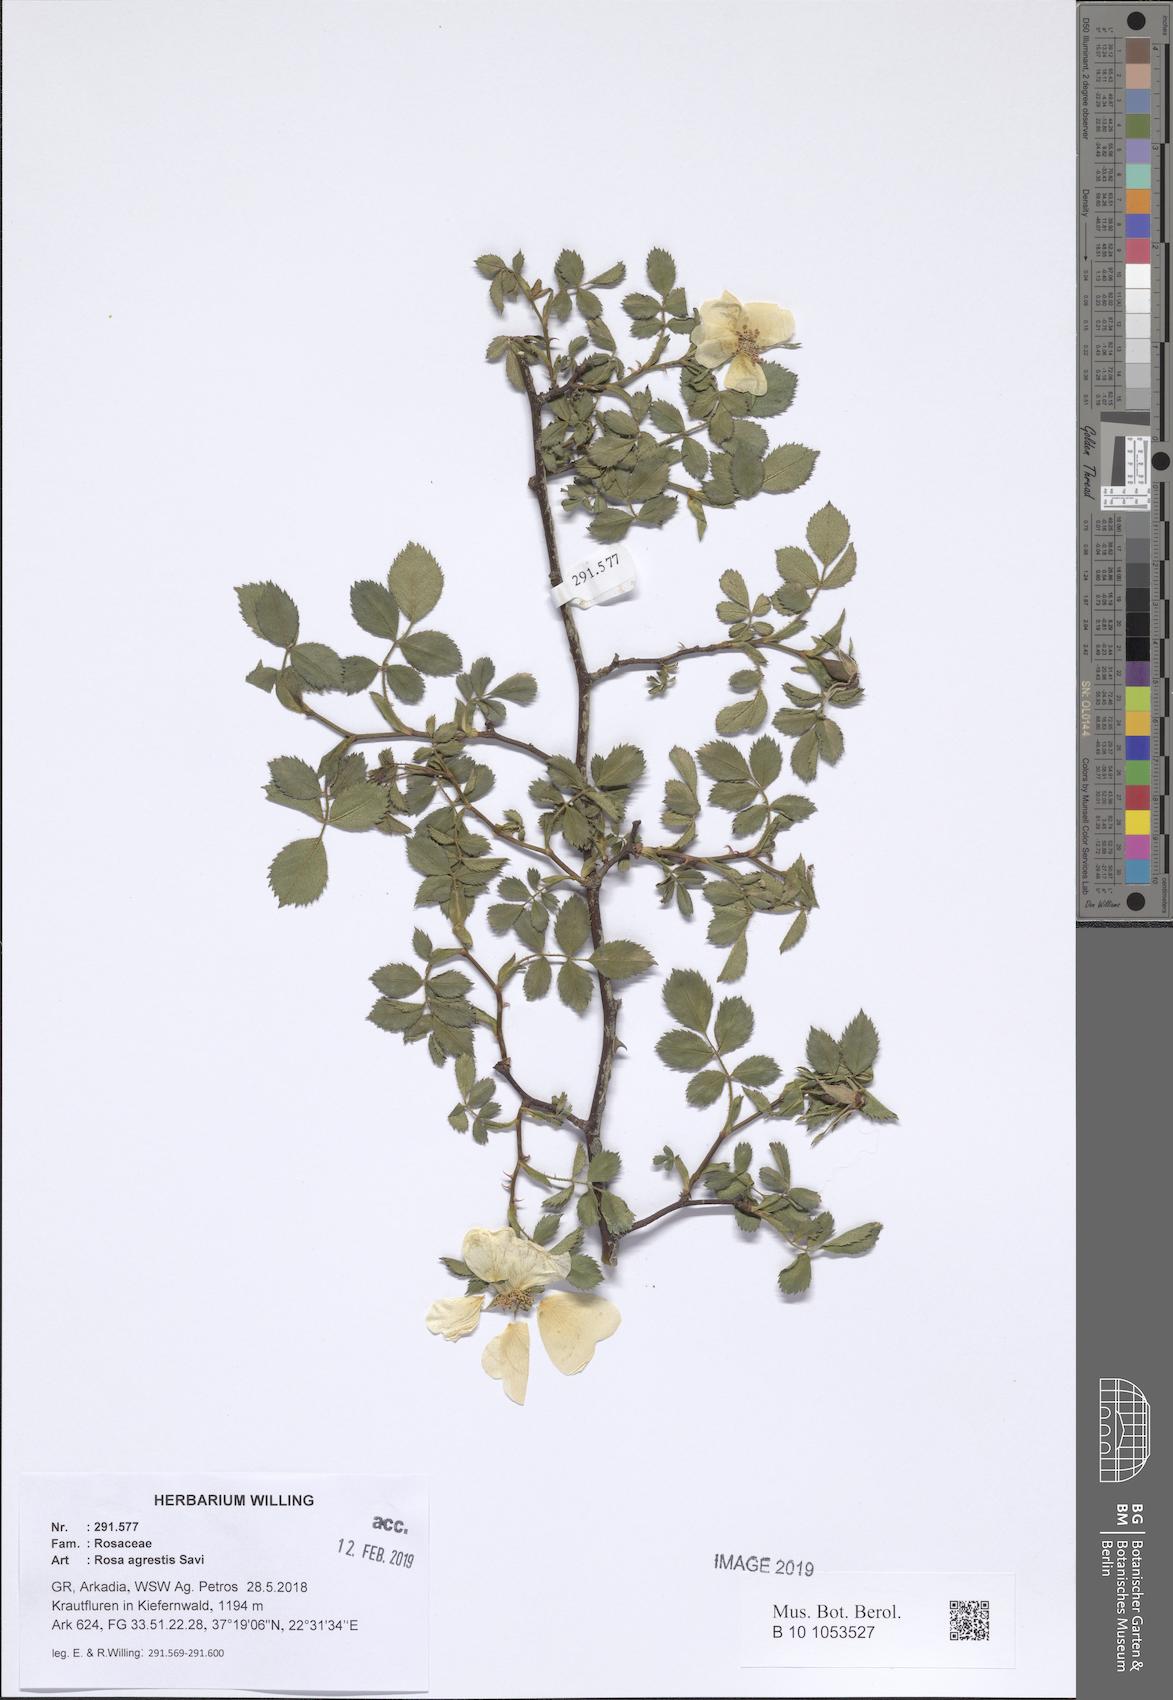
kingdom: Plantae
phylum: Tracheophyta
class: Magnoliopsida
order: Rosales
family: Rosaceae
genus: Rosa
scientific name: Rosa agrestis
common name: Fieldbriar
